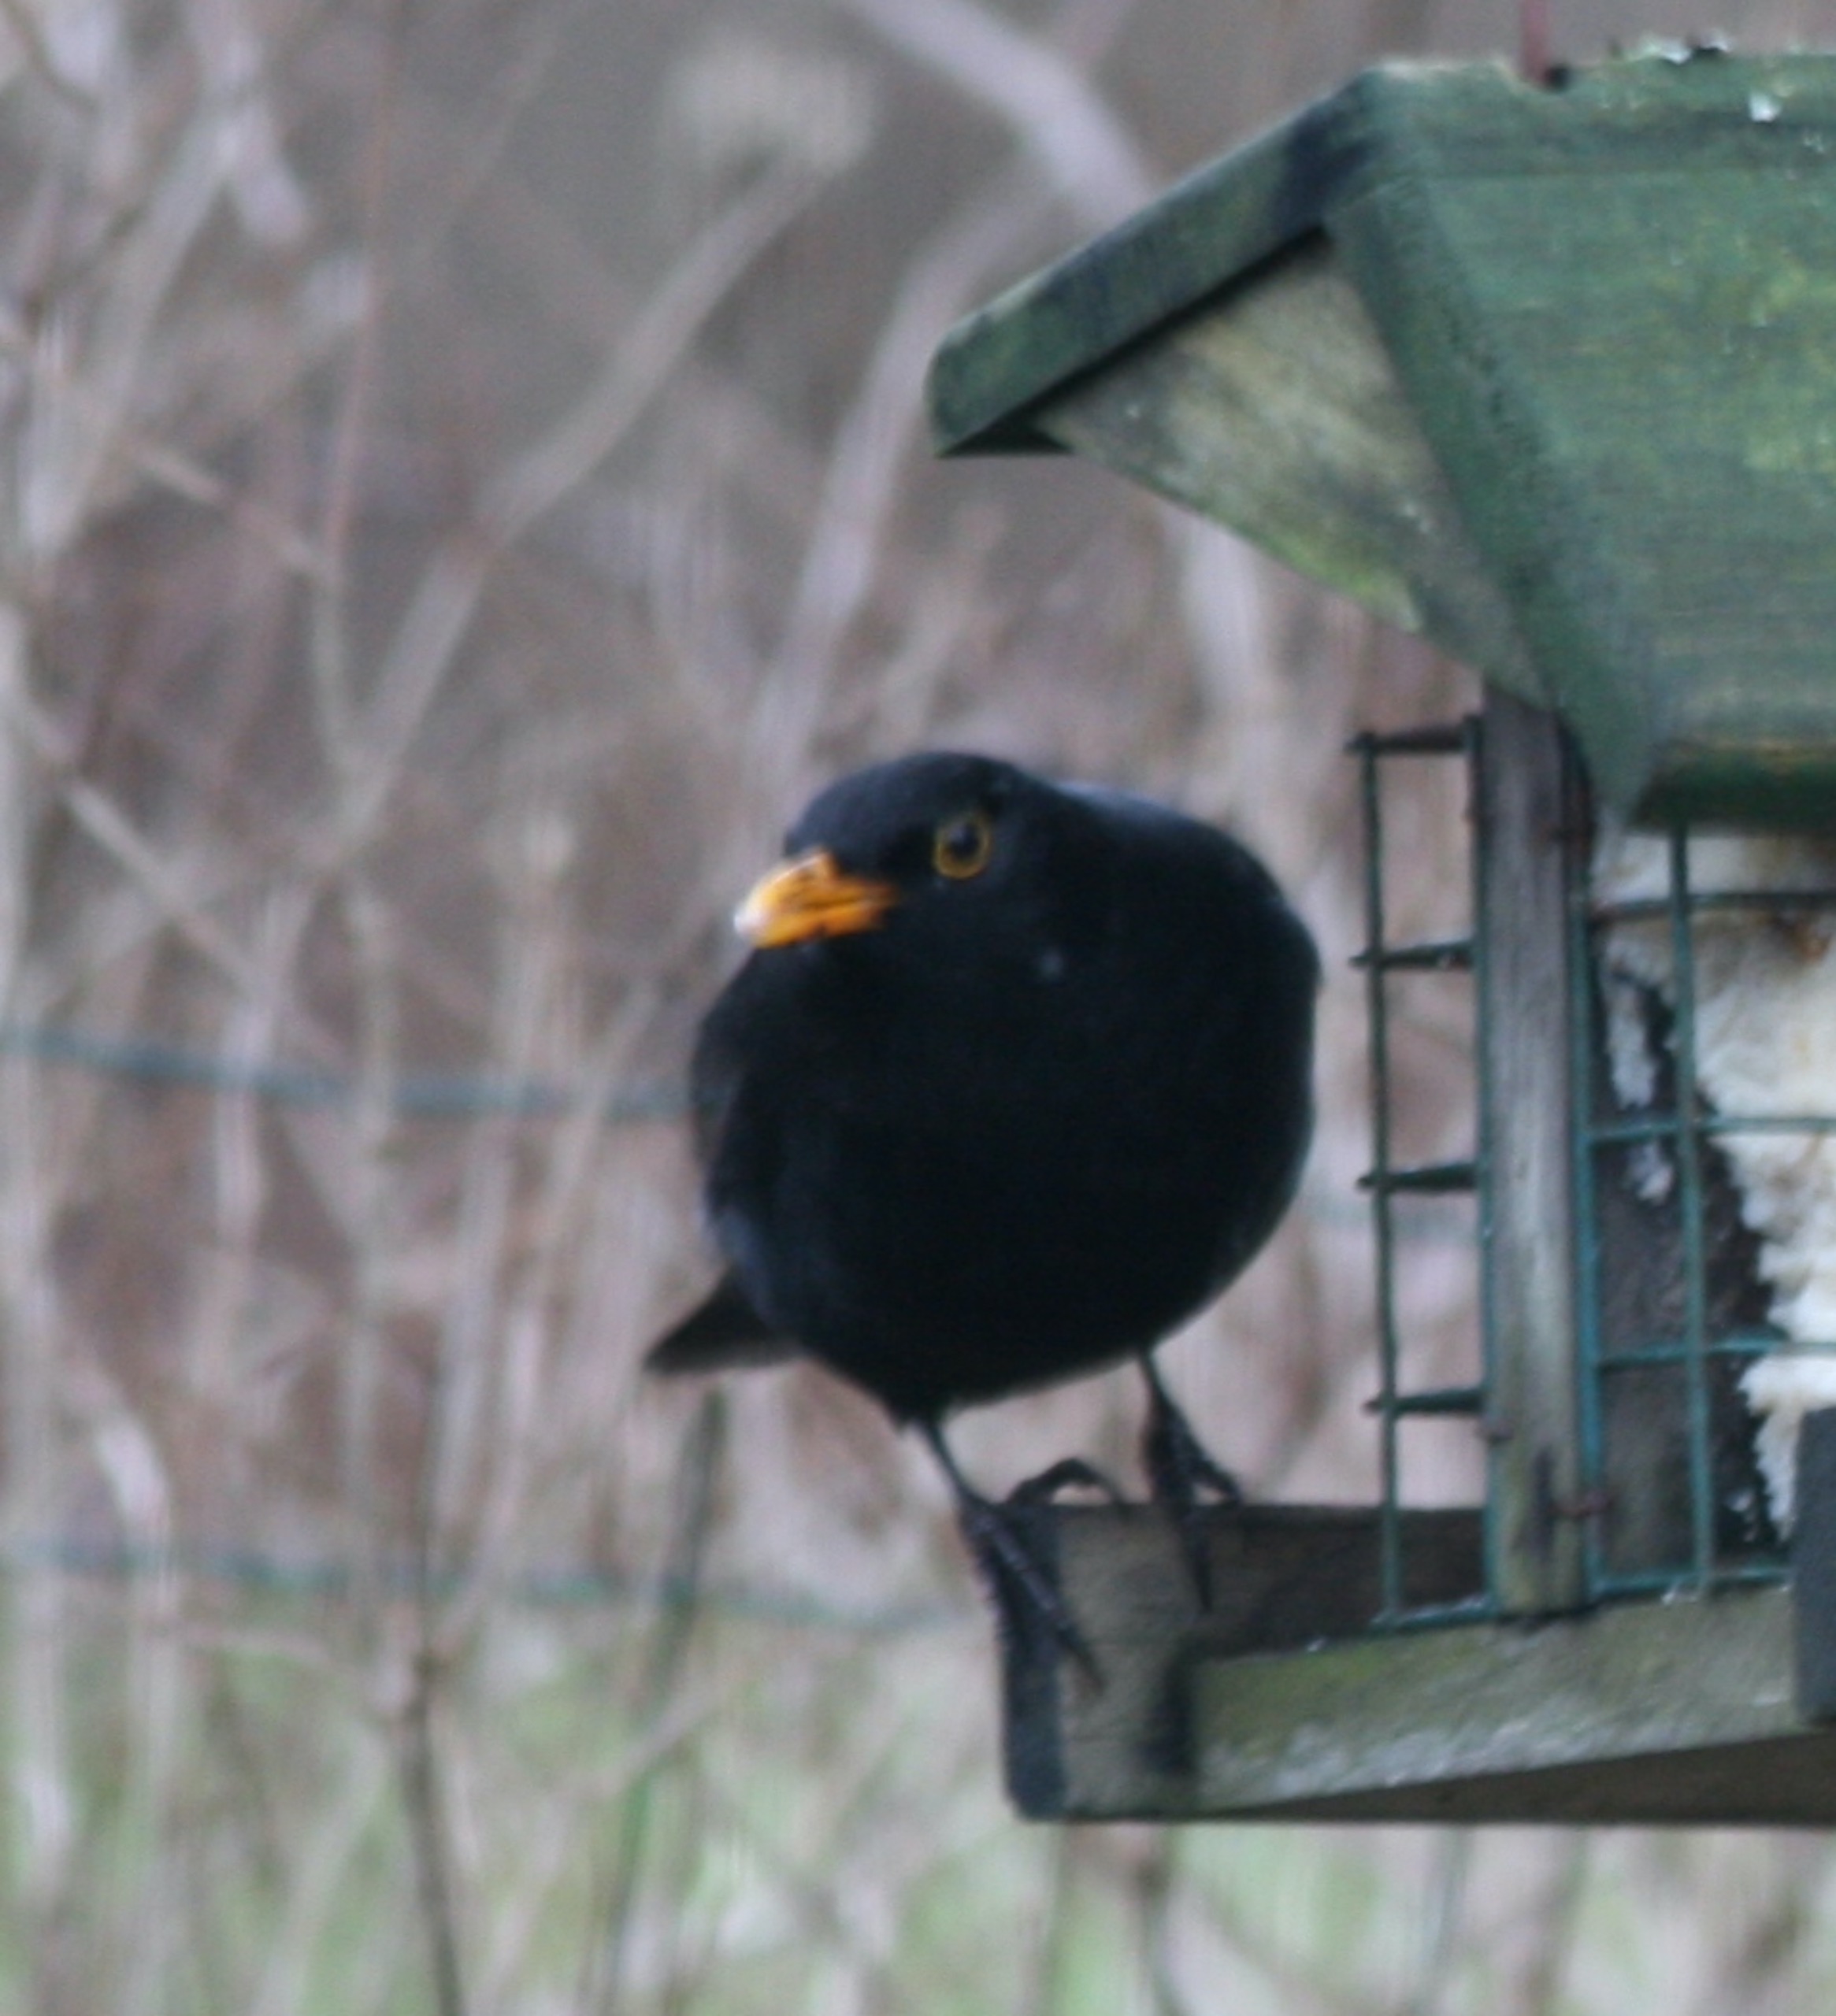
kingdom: Animalia
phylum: Chordata
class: Aves
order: Passeriformes
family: Turdidae
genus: Turdus
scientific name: Turdus merula
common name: Solsort
